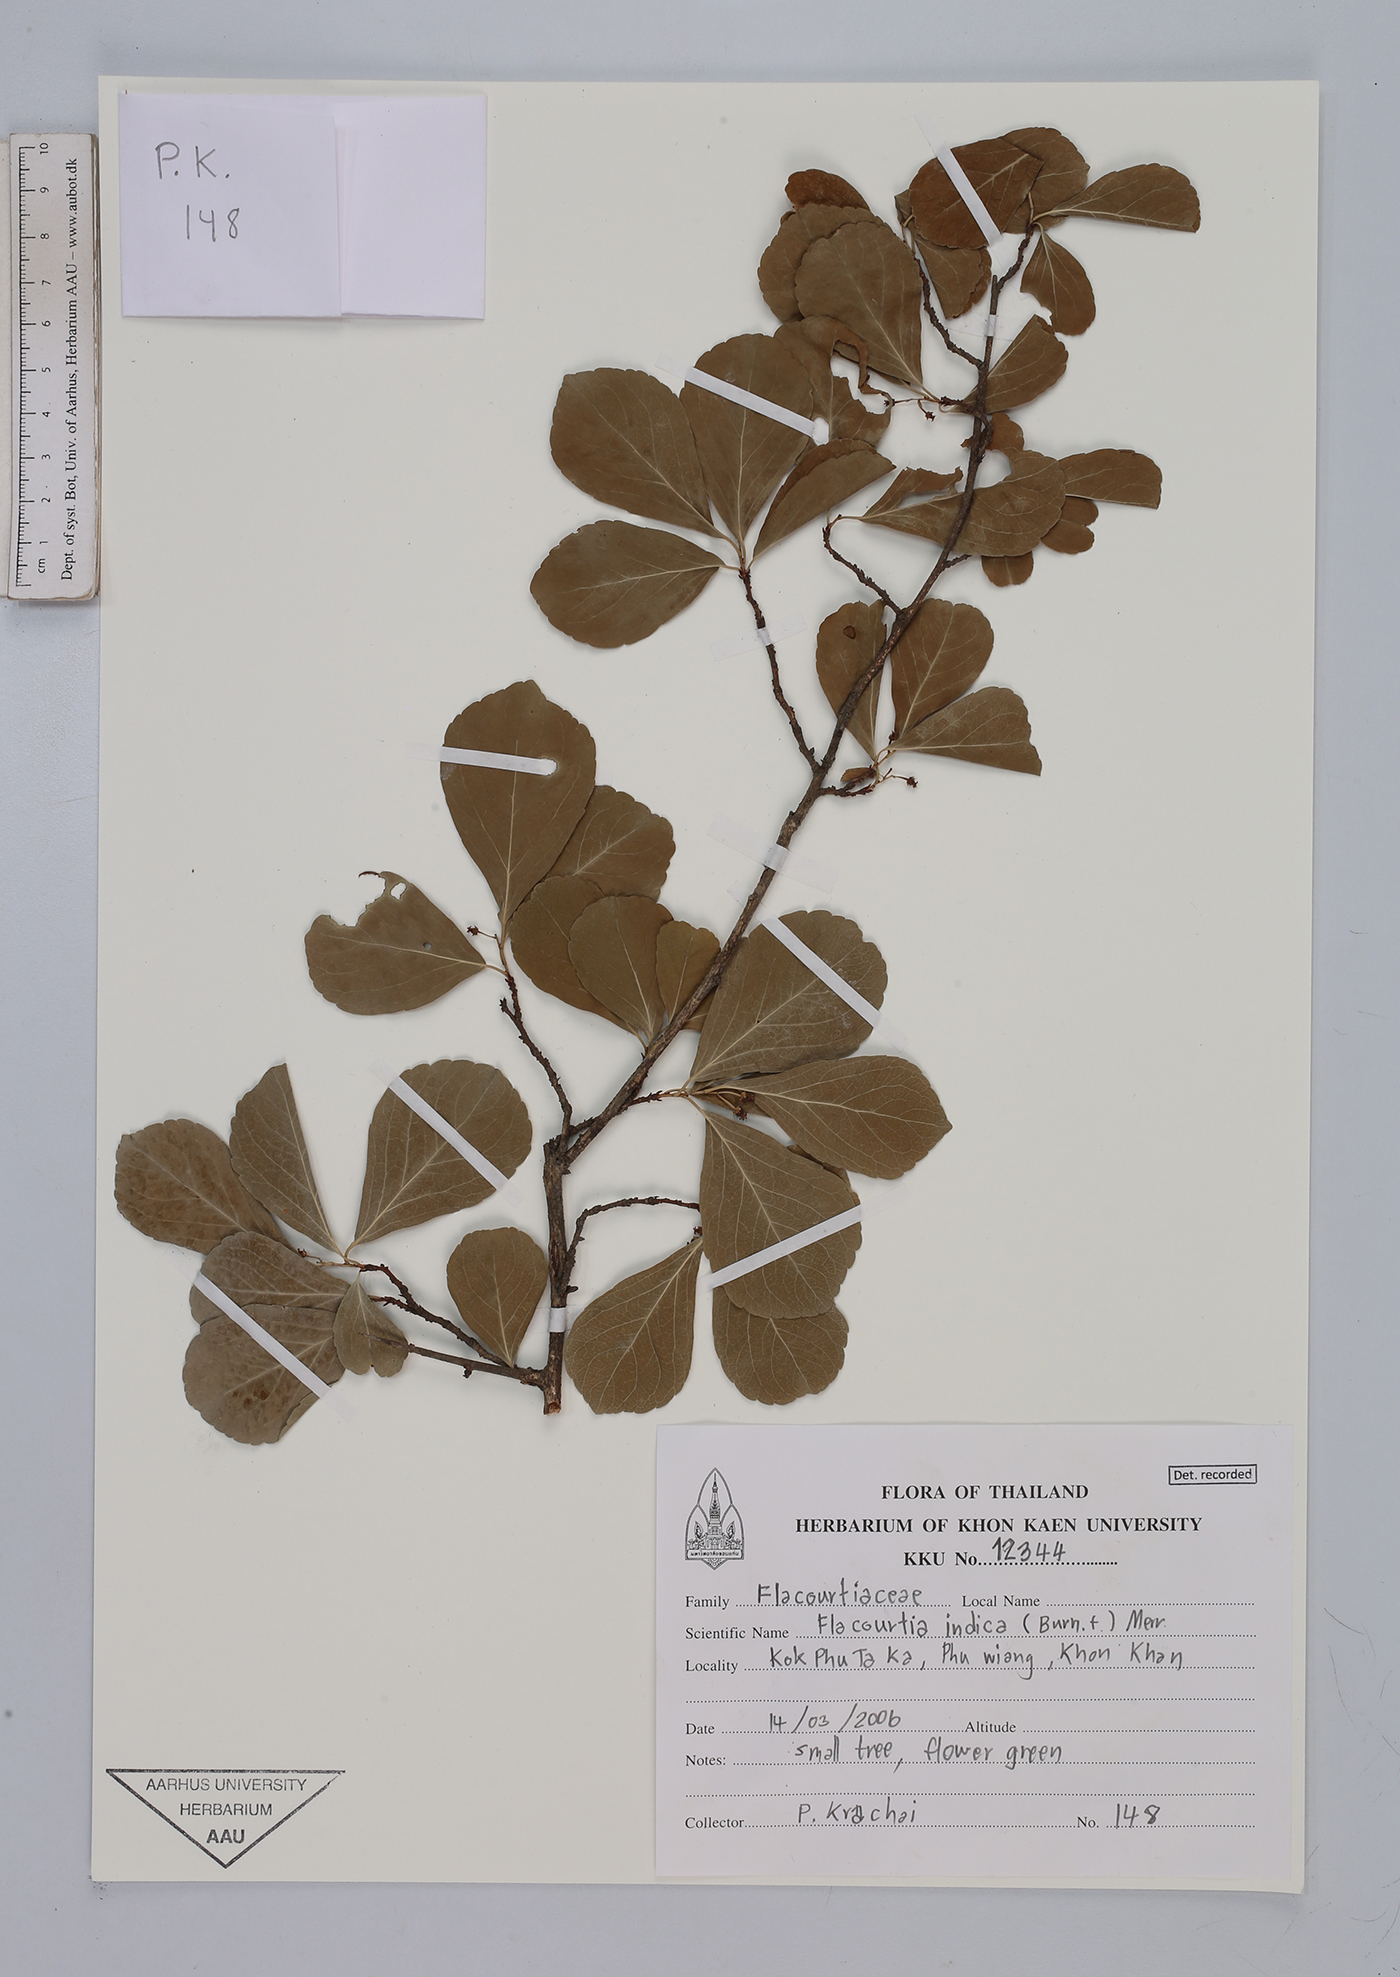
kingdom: Plantae
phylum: Tracheophyta
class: Magnoliopsida
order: Malpighiales
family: Salicaceae
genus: Flacourtia
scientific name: Flacourtia indica
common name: Governor's plum
